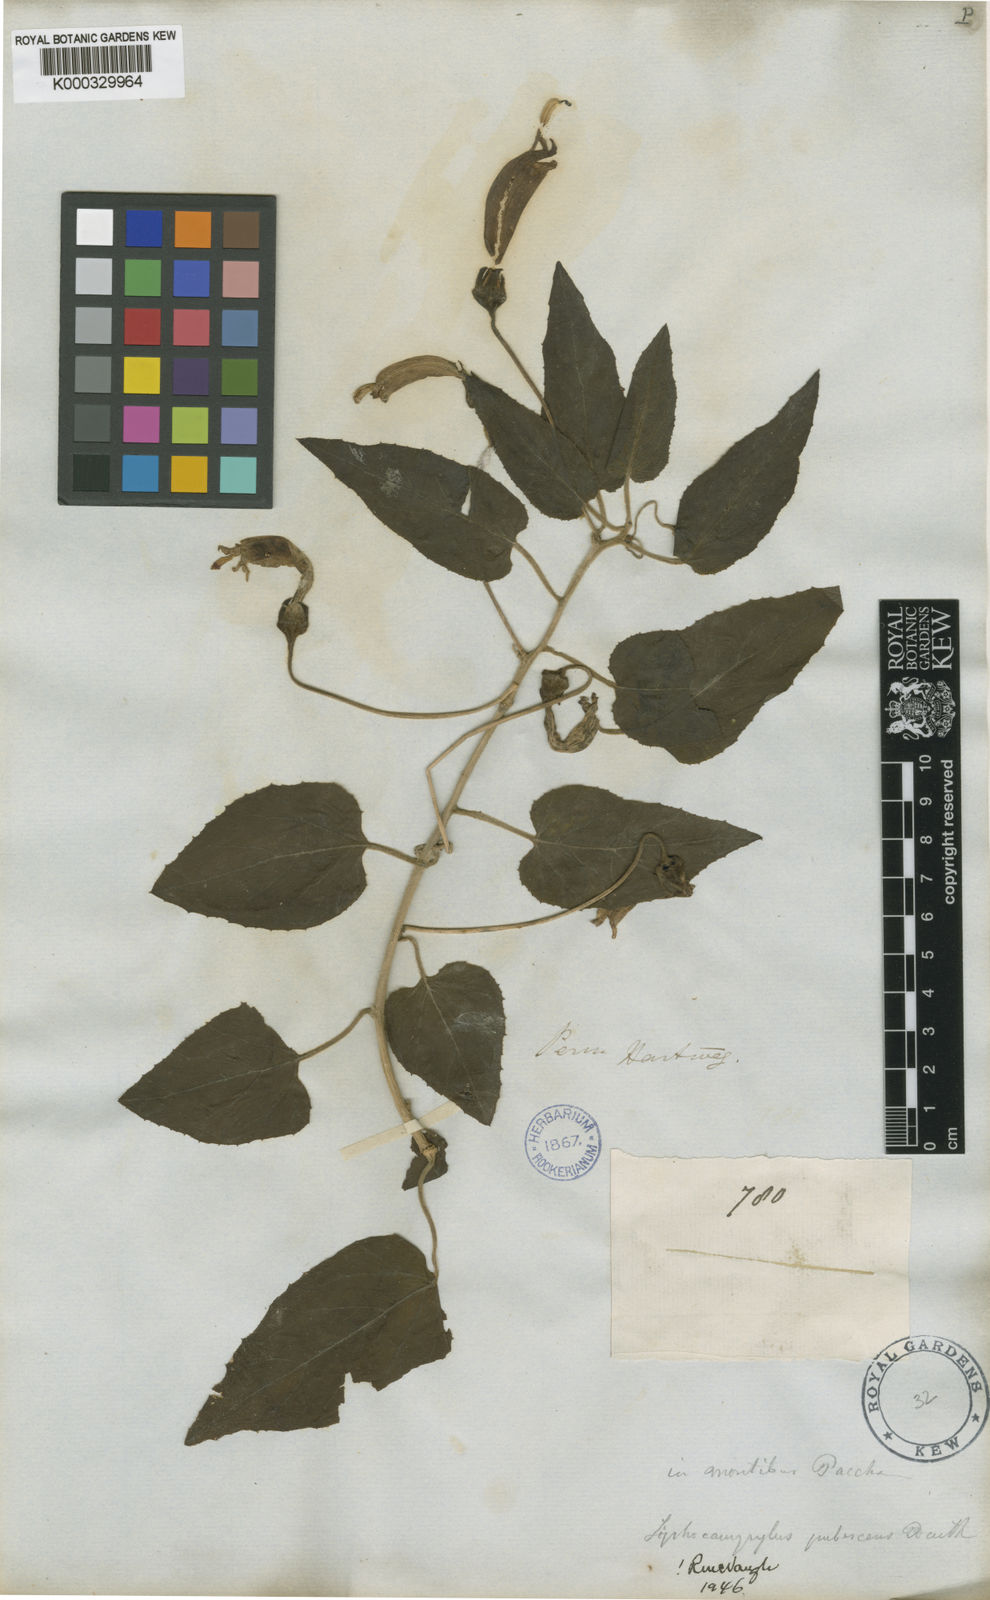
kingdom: Plantae
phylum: Tracheophyta
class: Magnoliopsida
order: Asterales
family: Campanulaceae
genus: Siphocampylus
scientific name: Siphocampylus humboldtianus
